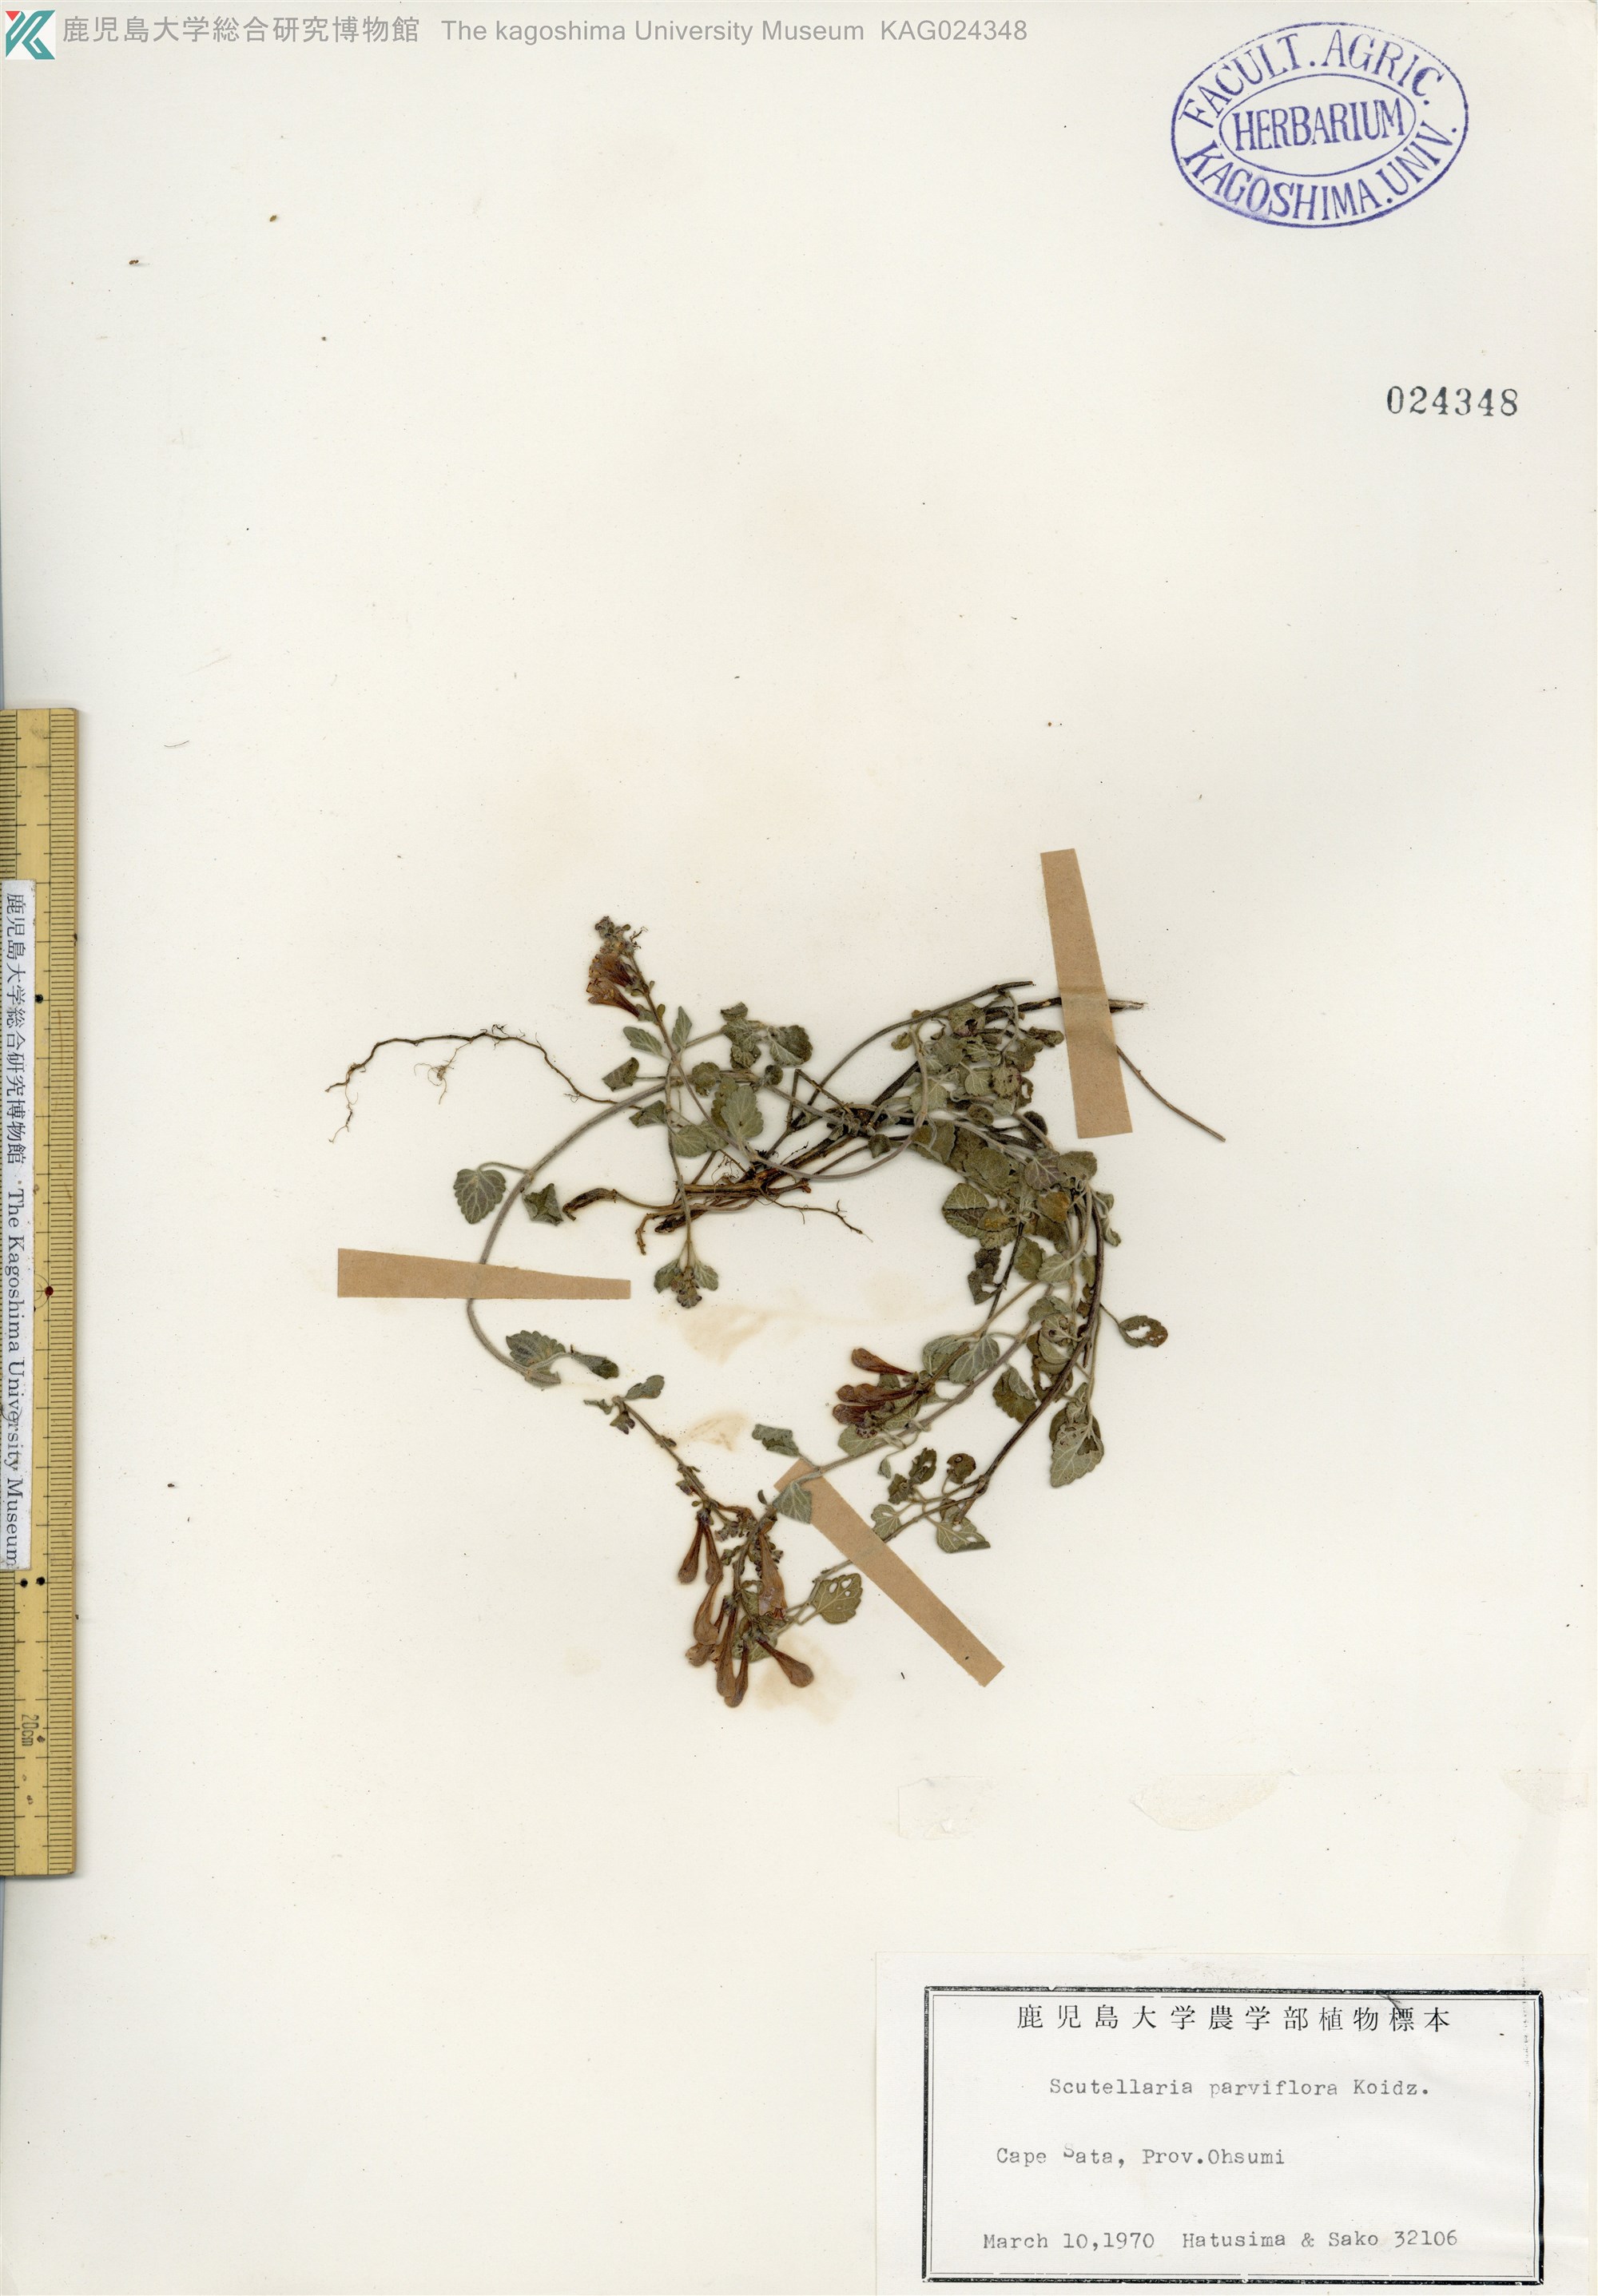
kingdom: Plantae
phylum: Tracheophyta
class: Magnoliopsida
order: Lamiales
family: Lamiaceae
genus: Scutellaria
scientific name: Scutellaria indica
